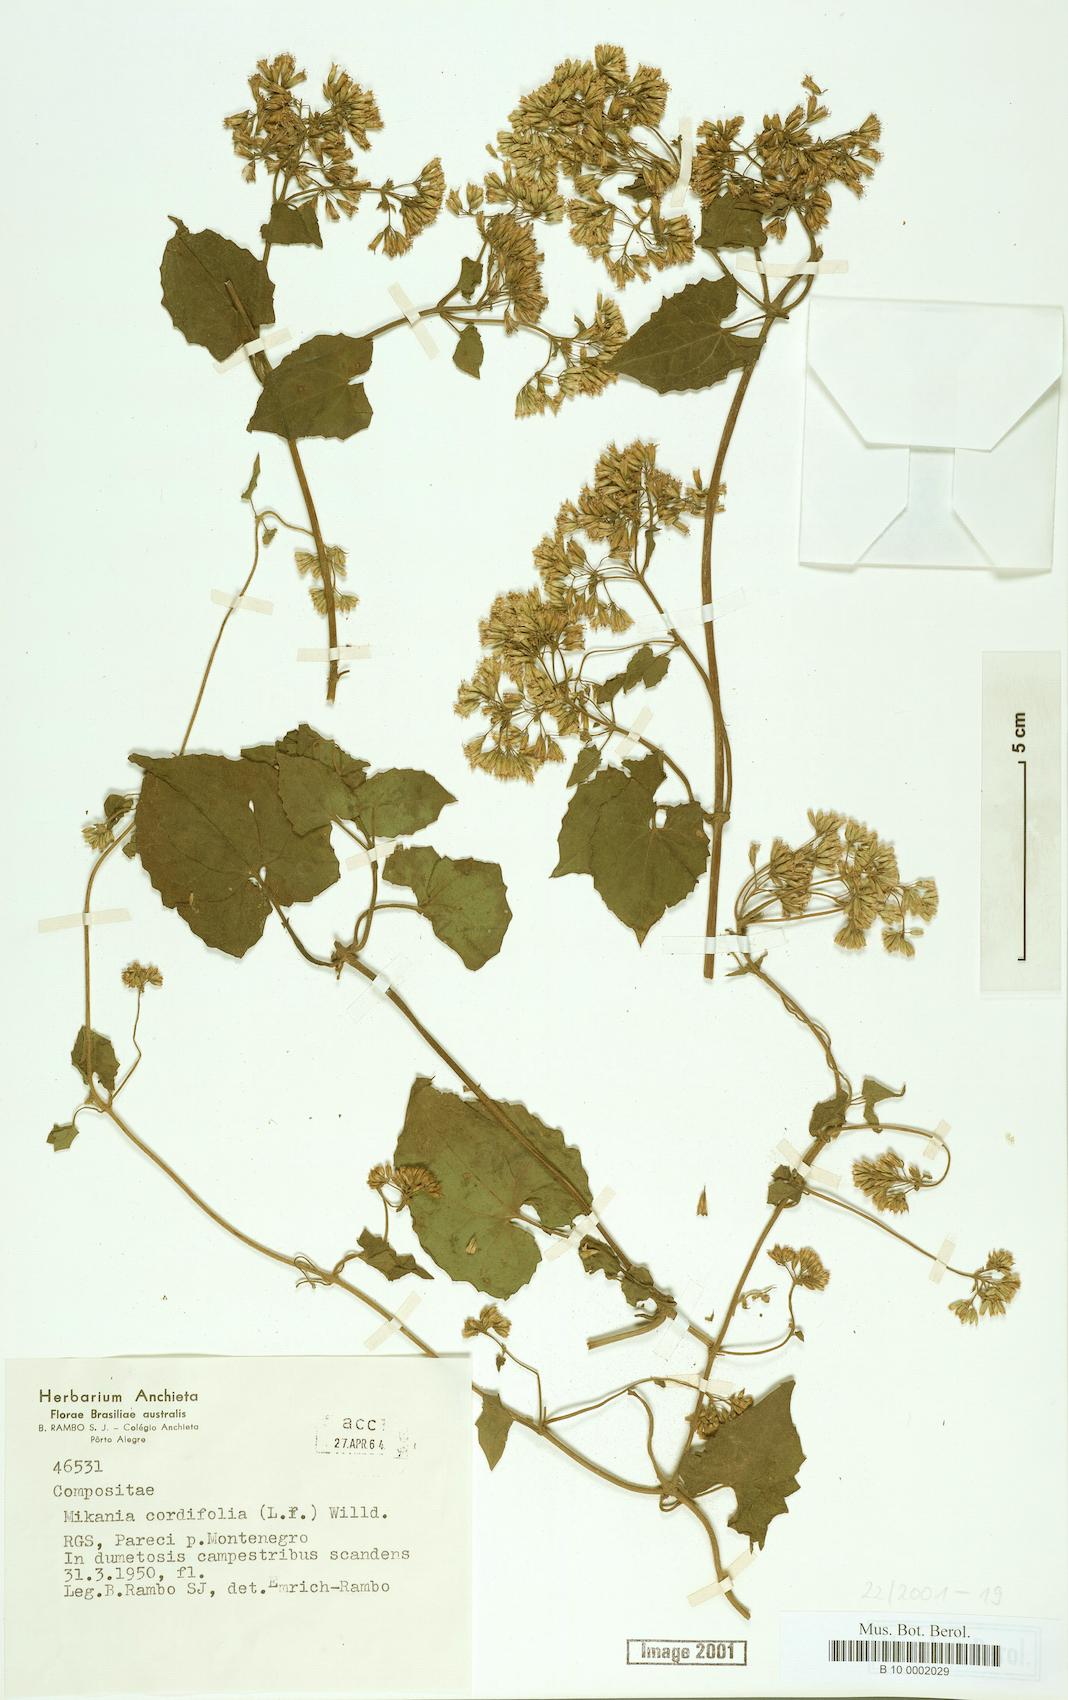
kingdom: Plantae
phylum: Tracheophyta
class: Magnoliopsida
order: Asterales
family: Asteraceae
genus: Mikania
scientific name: Mikania cordifolia
